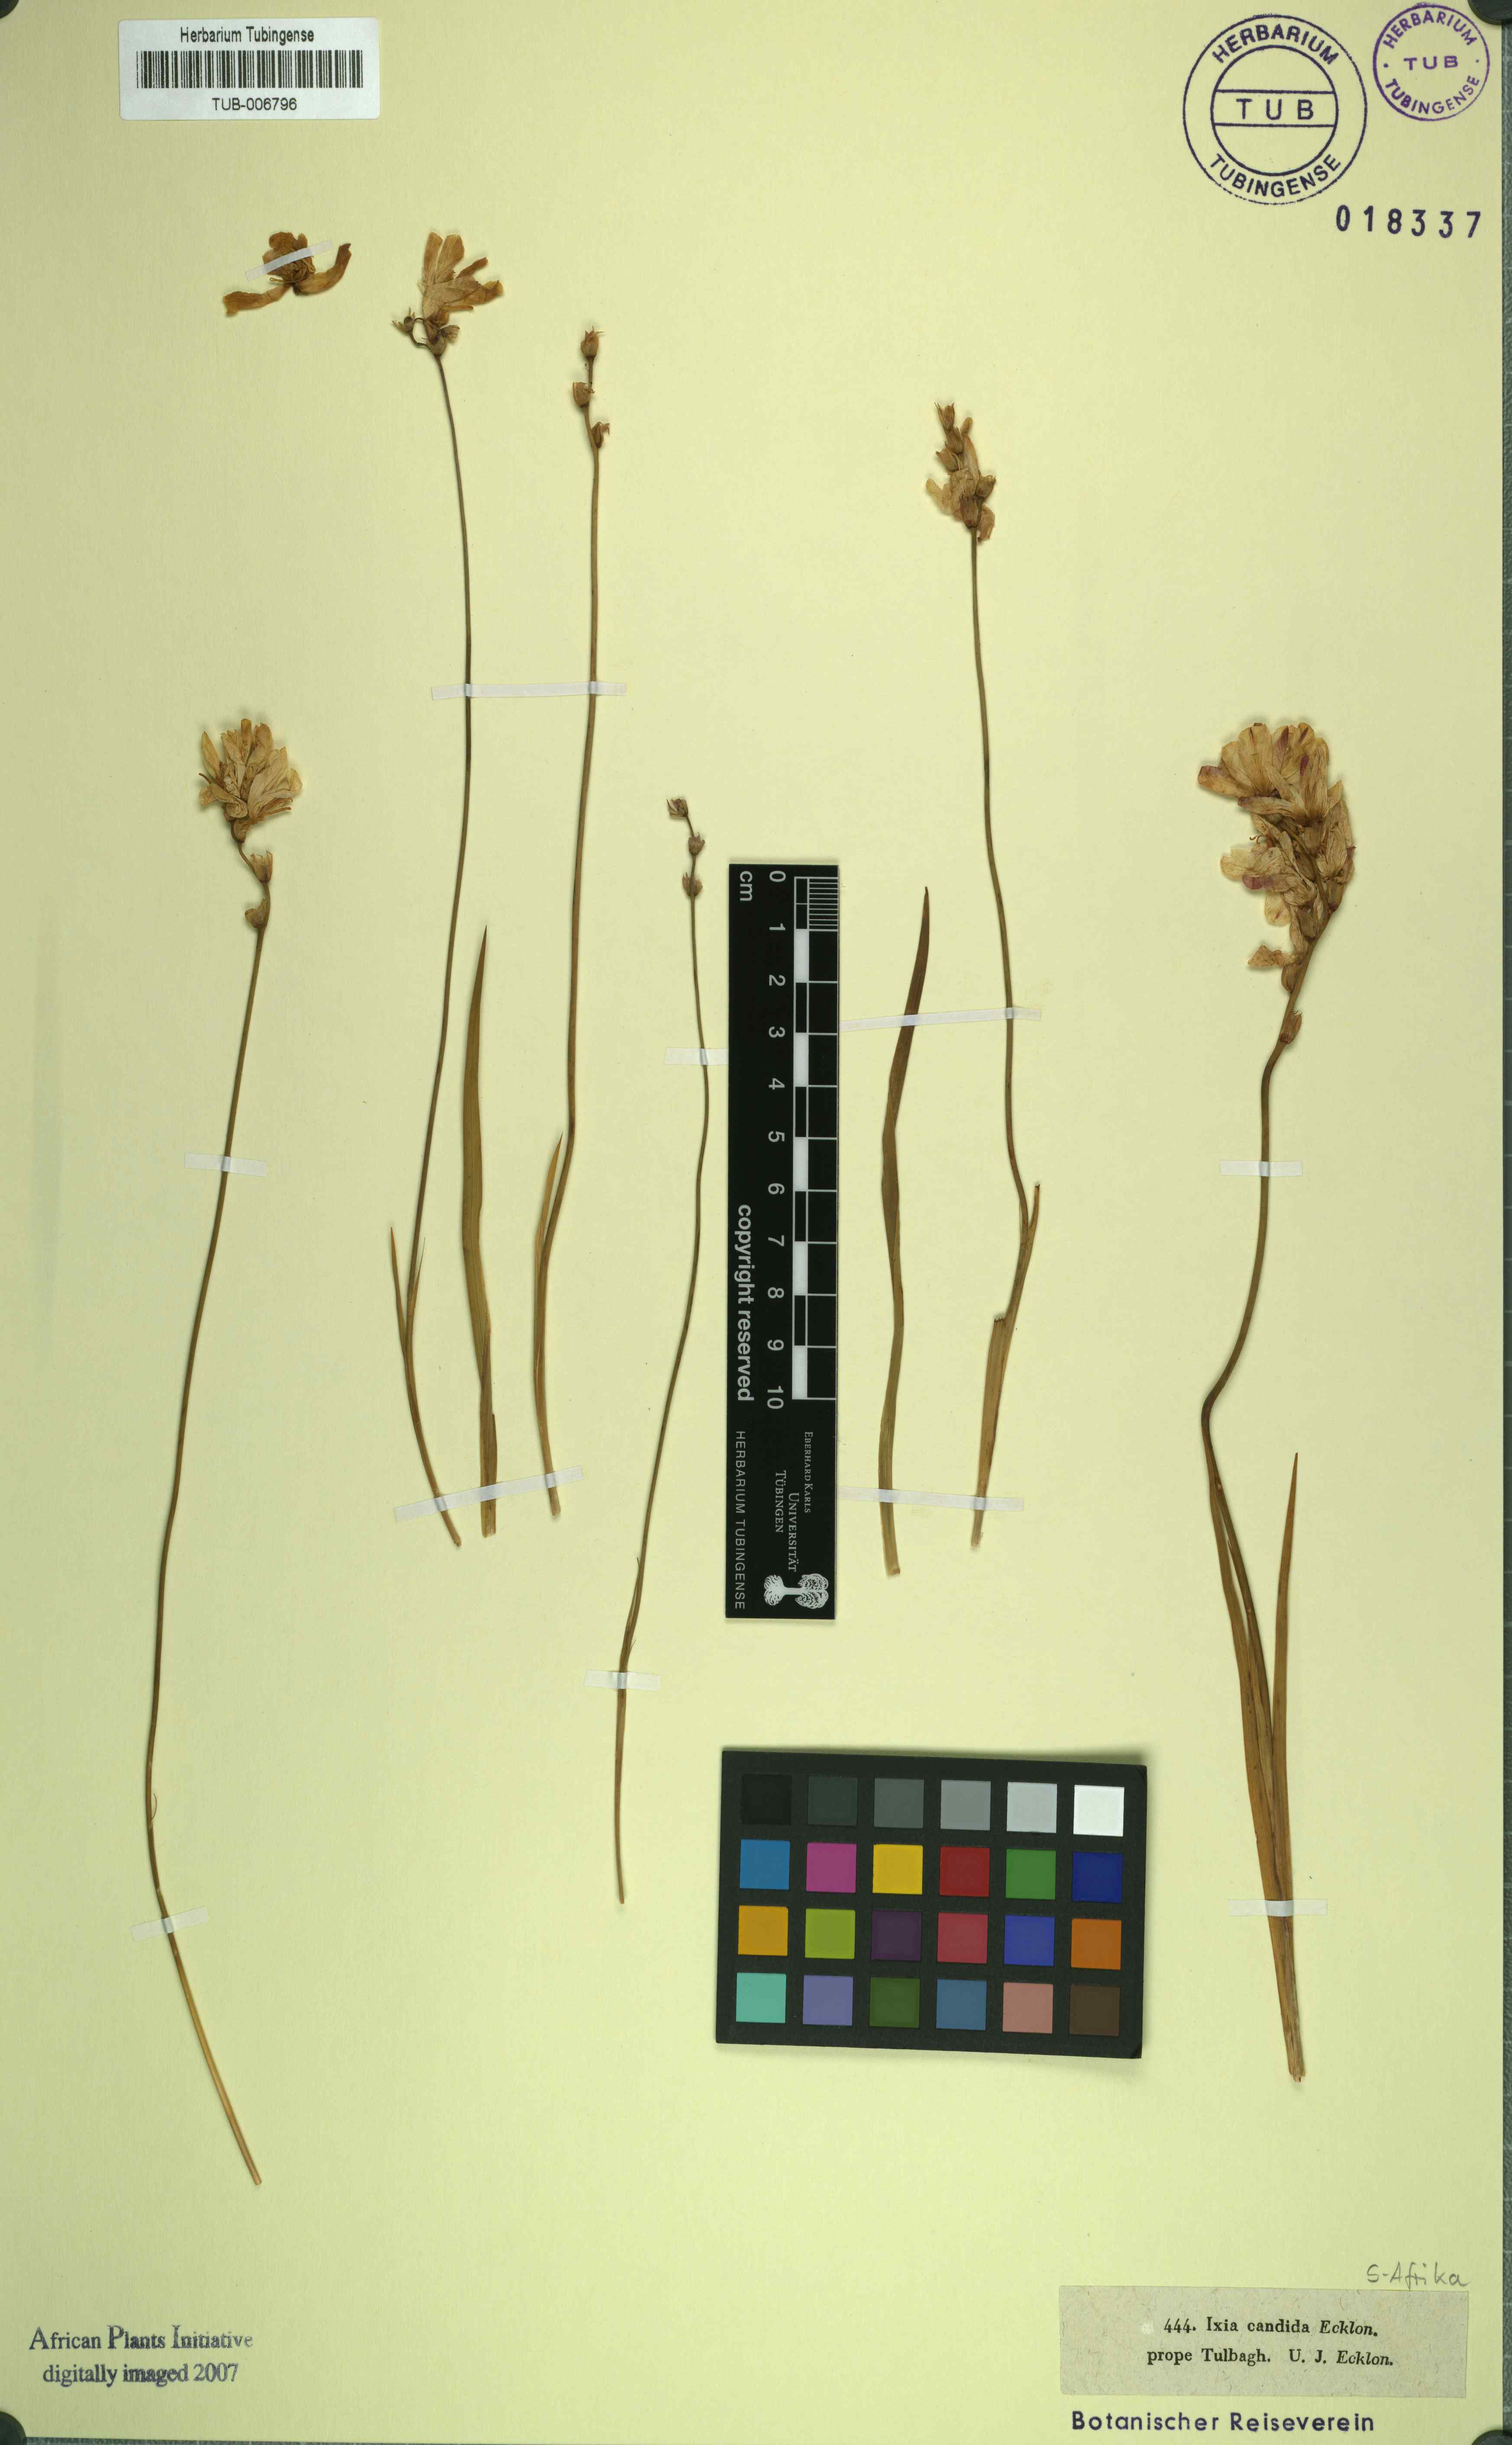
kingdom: Plantae
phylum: Tracheophyta
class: Liliopsida
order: Asparagales
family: Iridaceae
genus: Ixia
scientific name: Ixia
